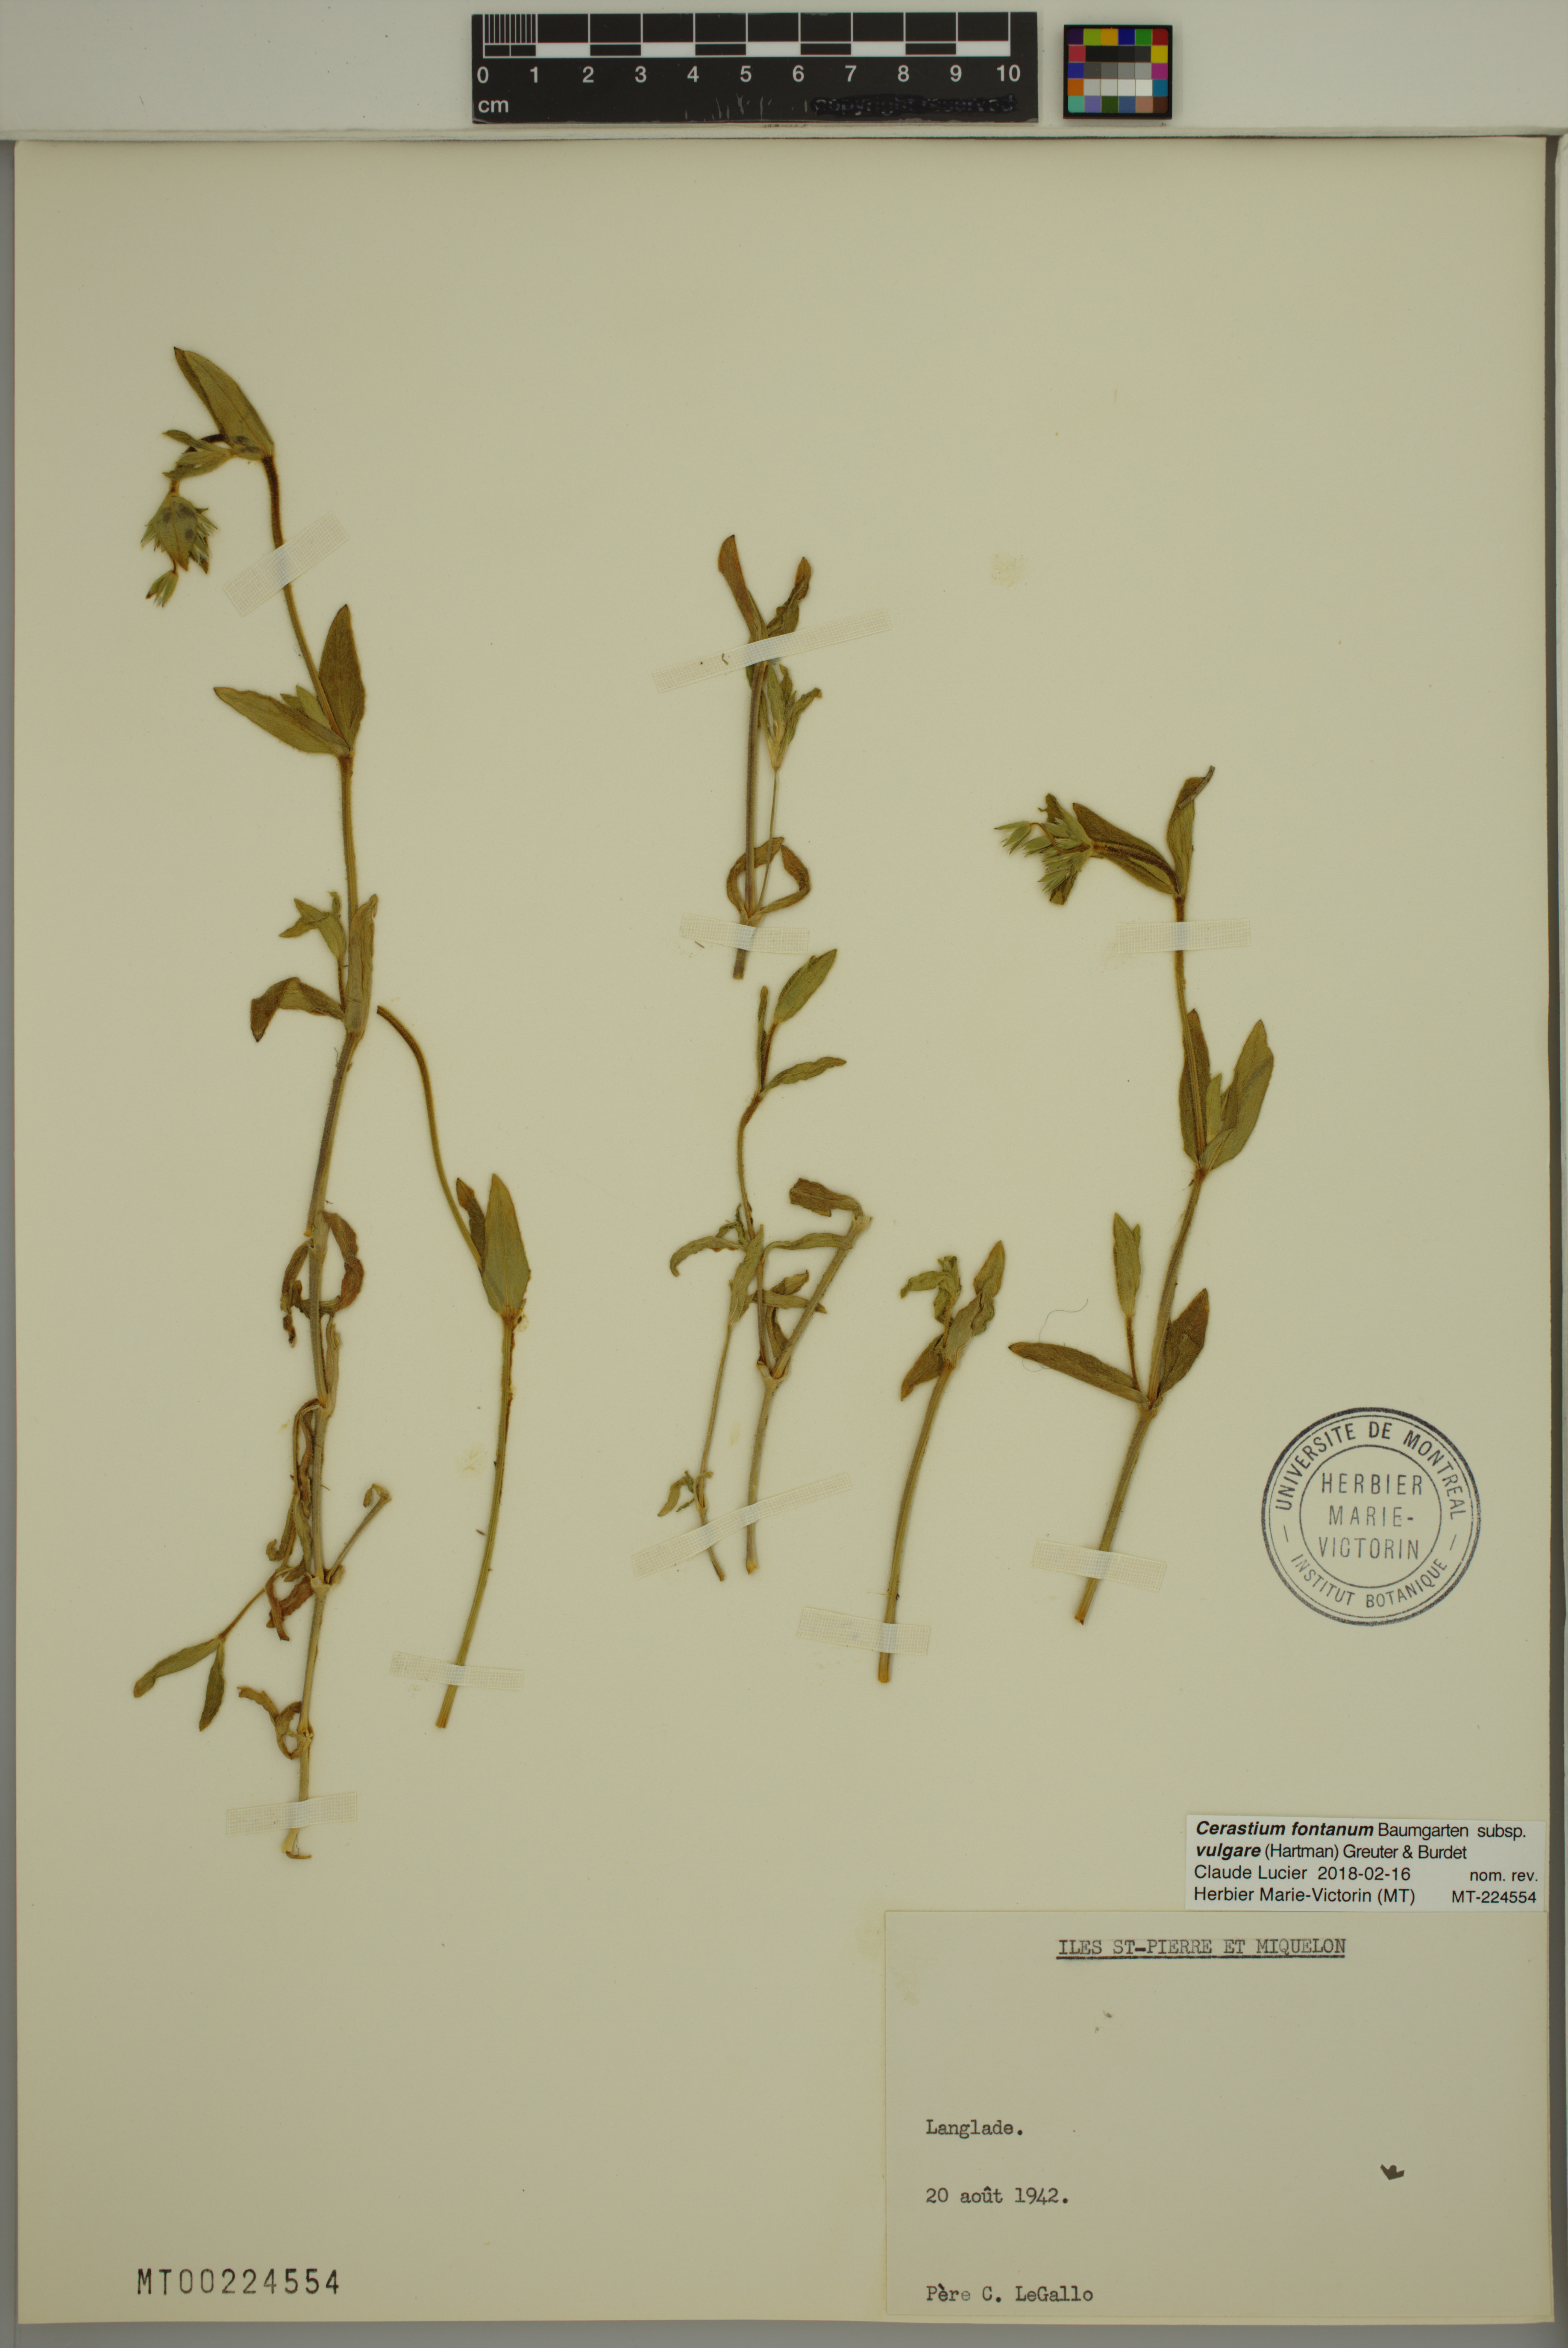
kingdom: Plantae
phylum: Tracheophyta
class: Magnoliopsida
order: Caryophyllales
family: Caryophyllaceae
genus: Cerastium
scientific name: Cerastium holosteoides
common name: Big chickweed
